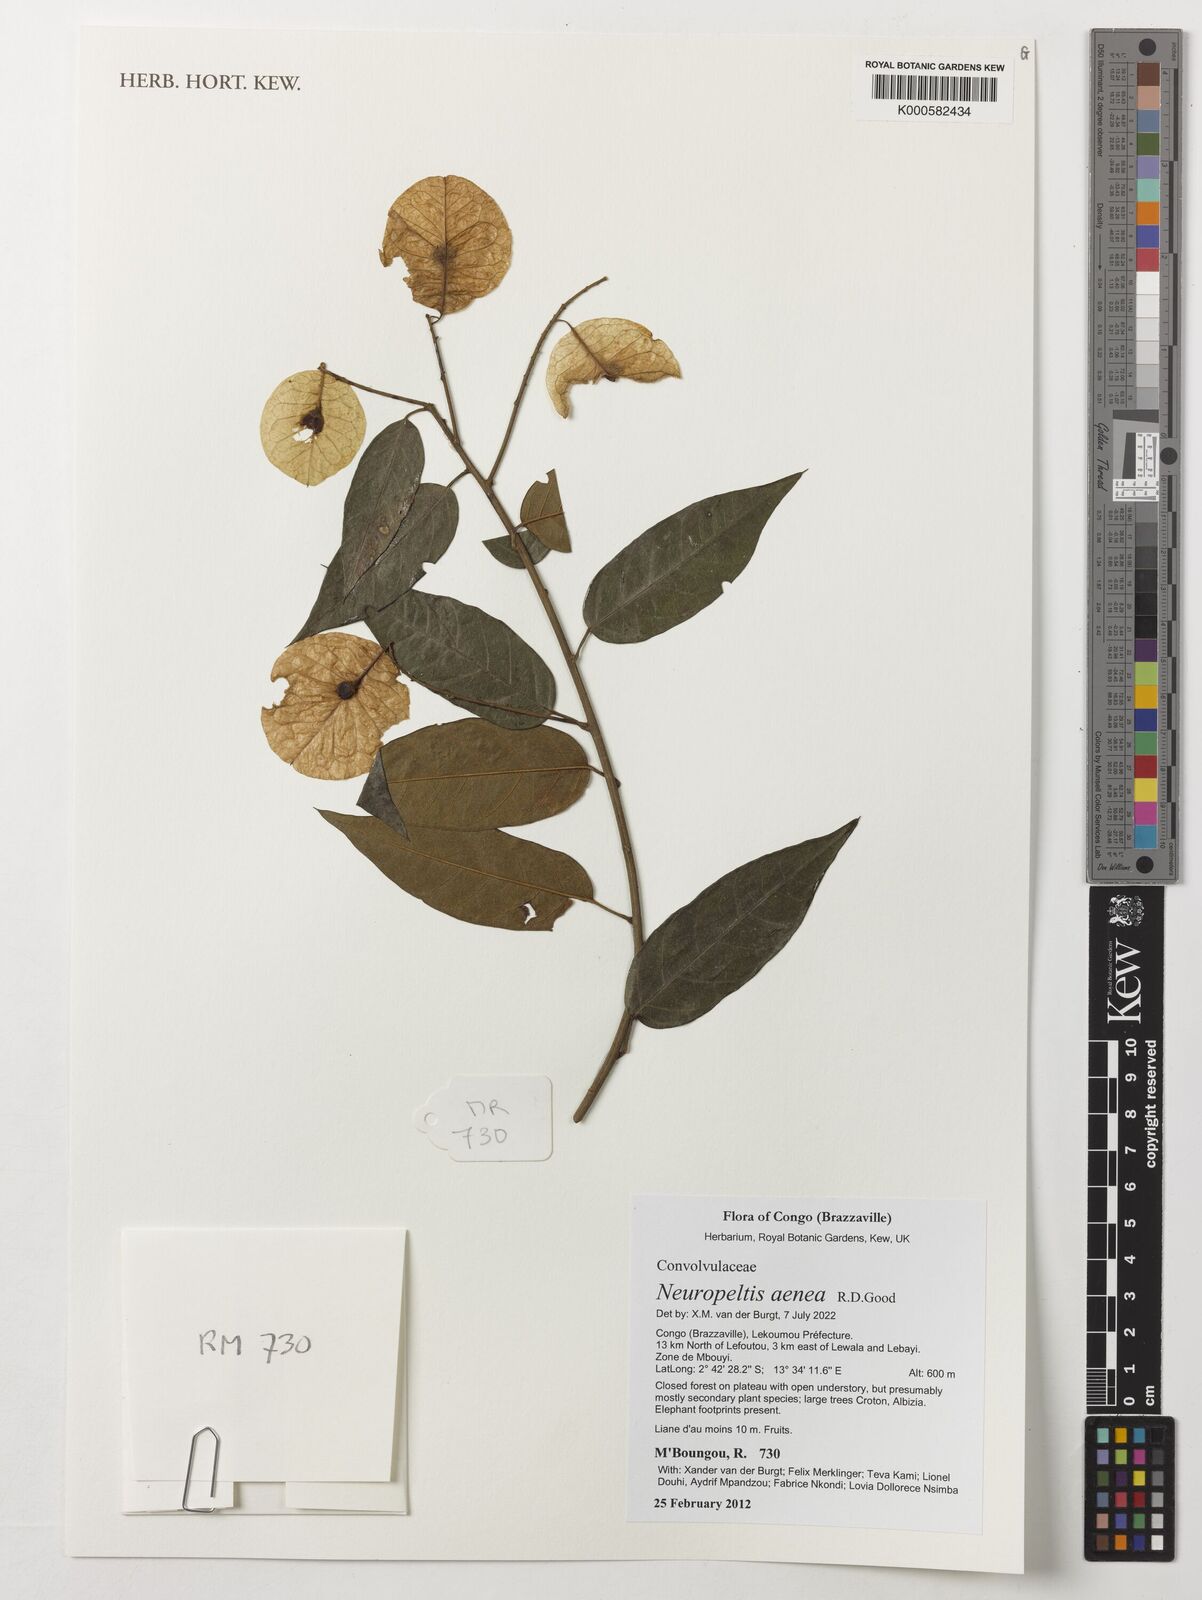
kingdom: Plantae
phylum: Tracheophyta
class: Magnoliopsida
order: Solanales
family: Convolvulaceae
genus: Neuropeltis
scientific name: Neuropeltis aenea
